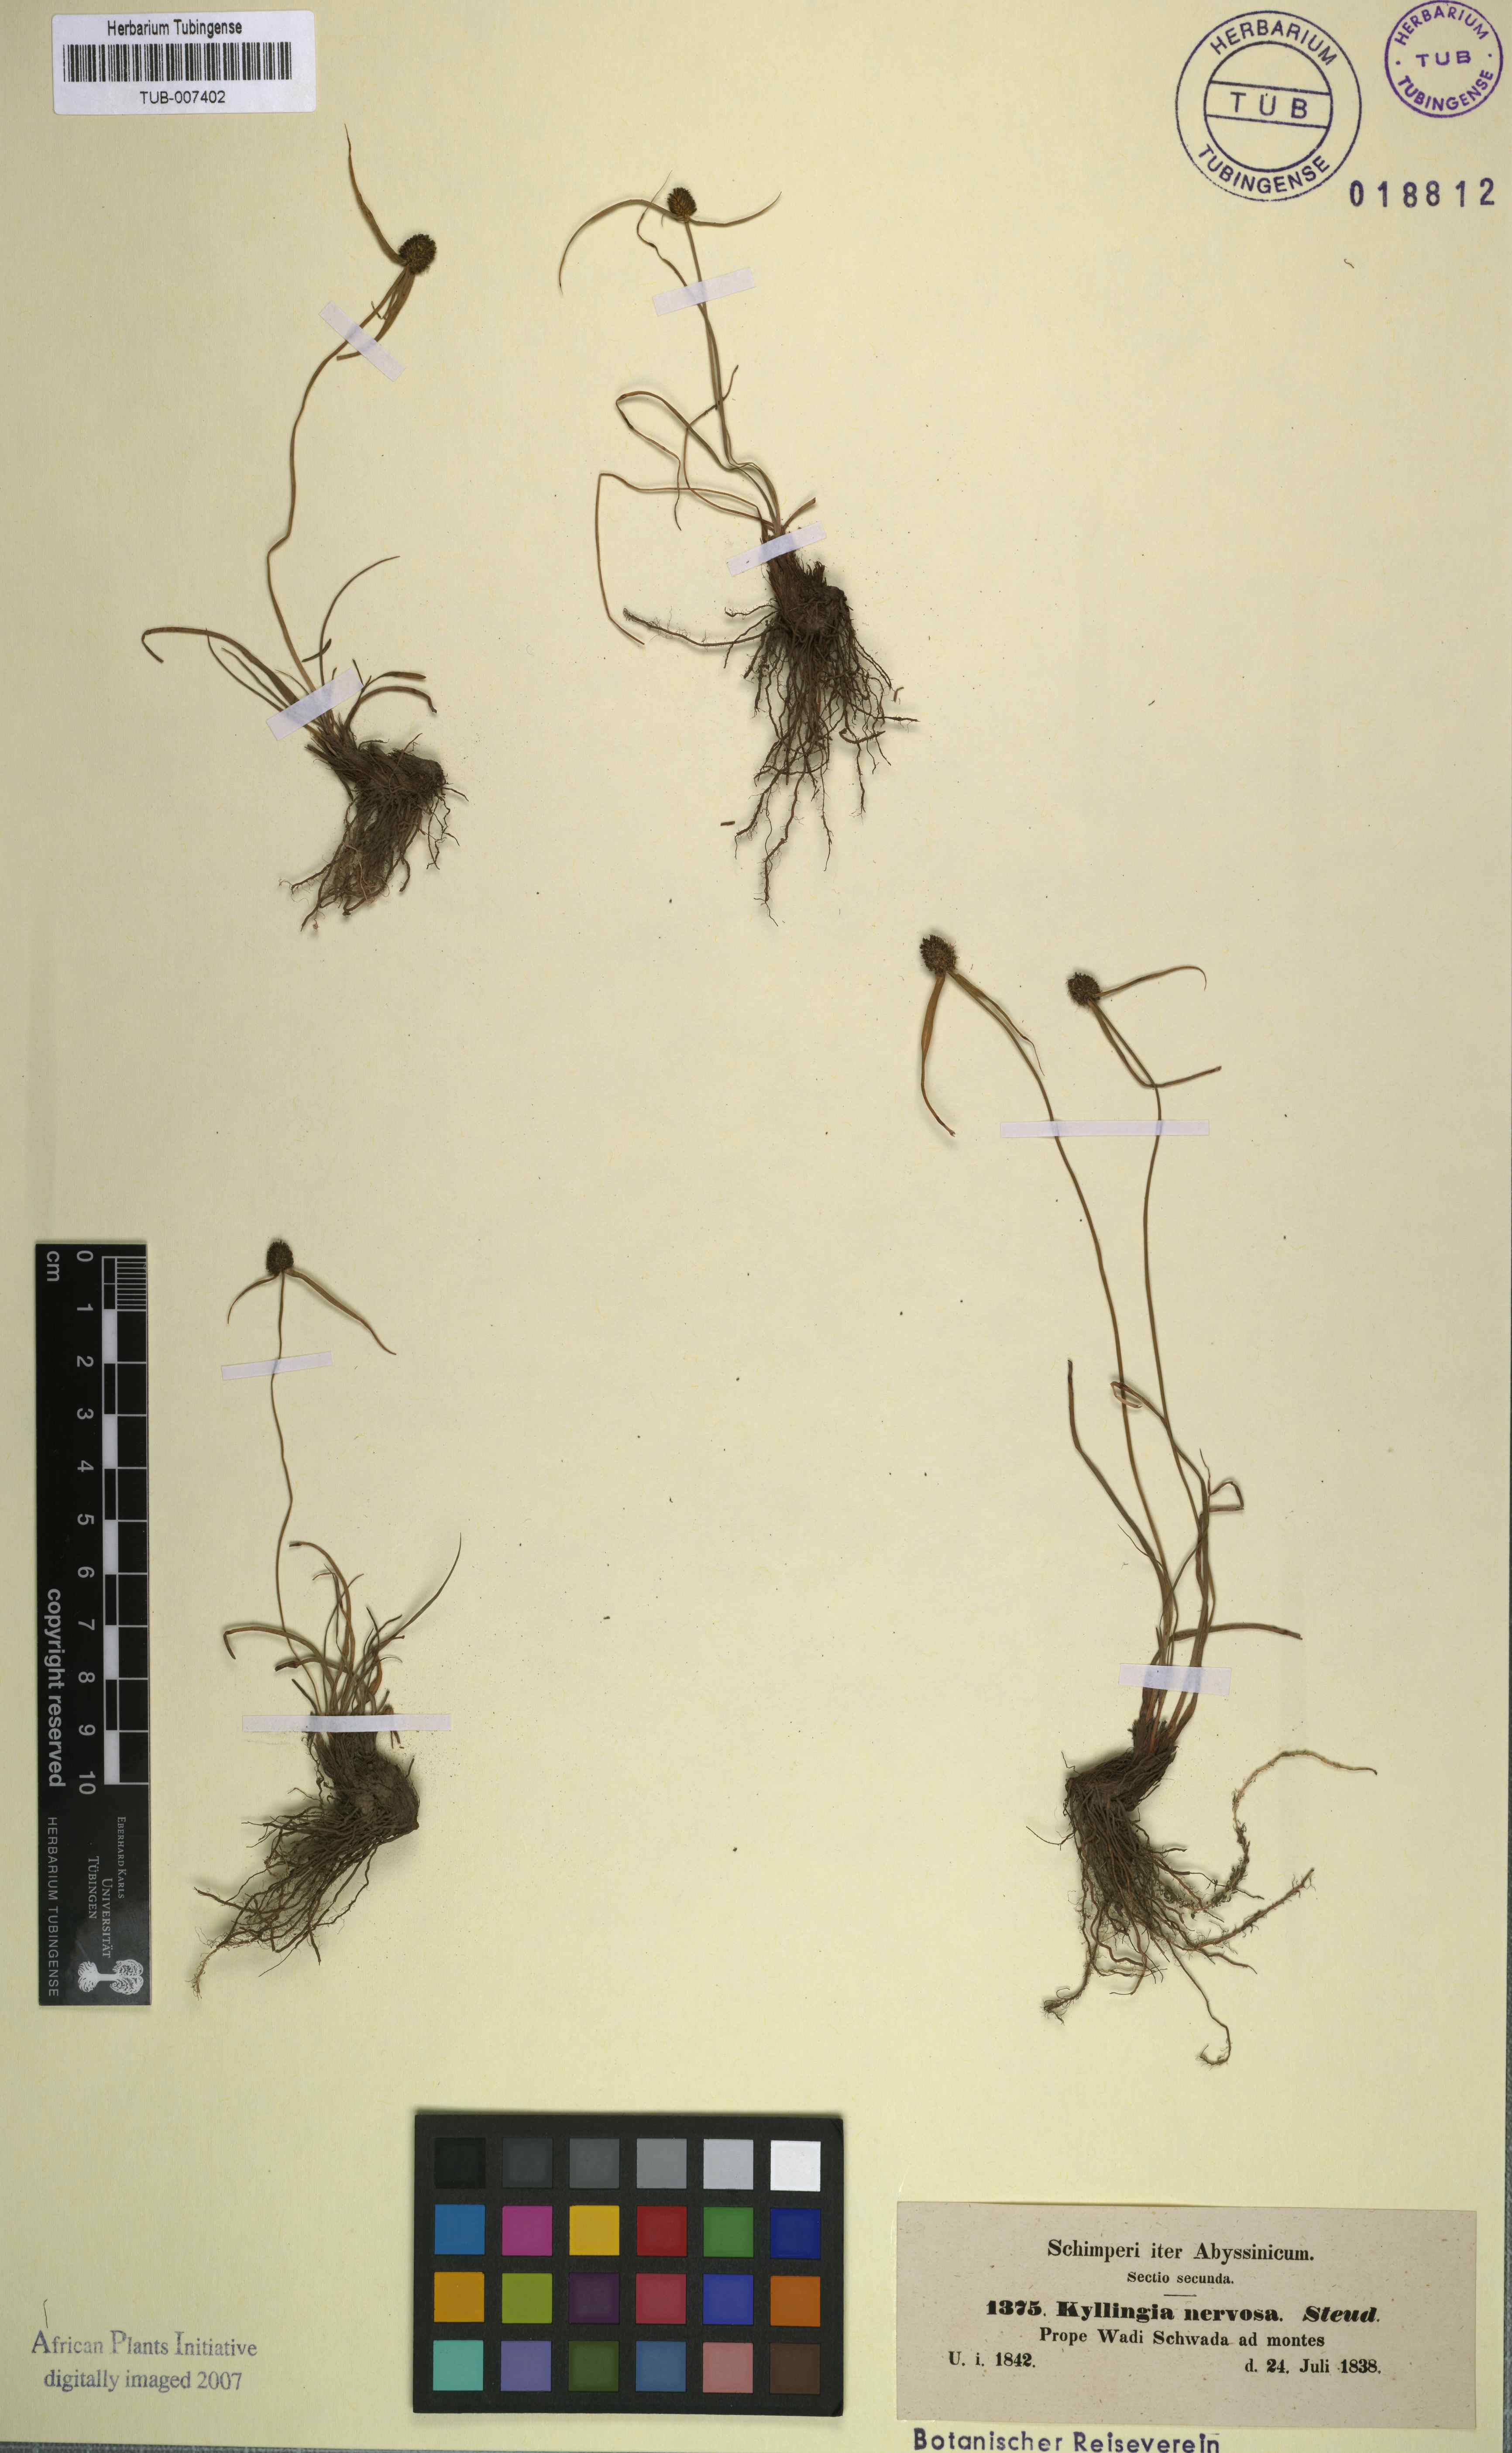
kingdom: Plantae
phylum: Tracheophyta
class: Liliopsida
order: Poales
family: Cyperaceae
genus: Cyperus
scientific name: Cyperus costatus
